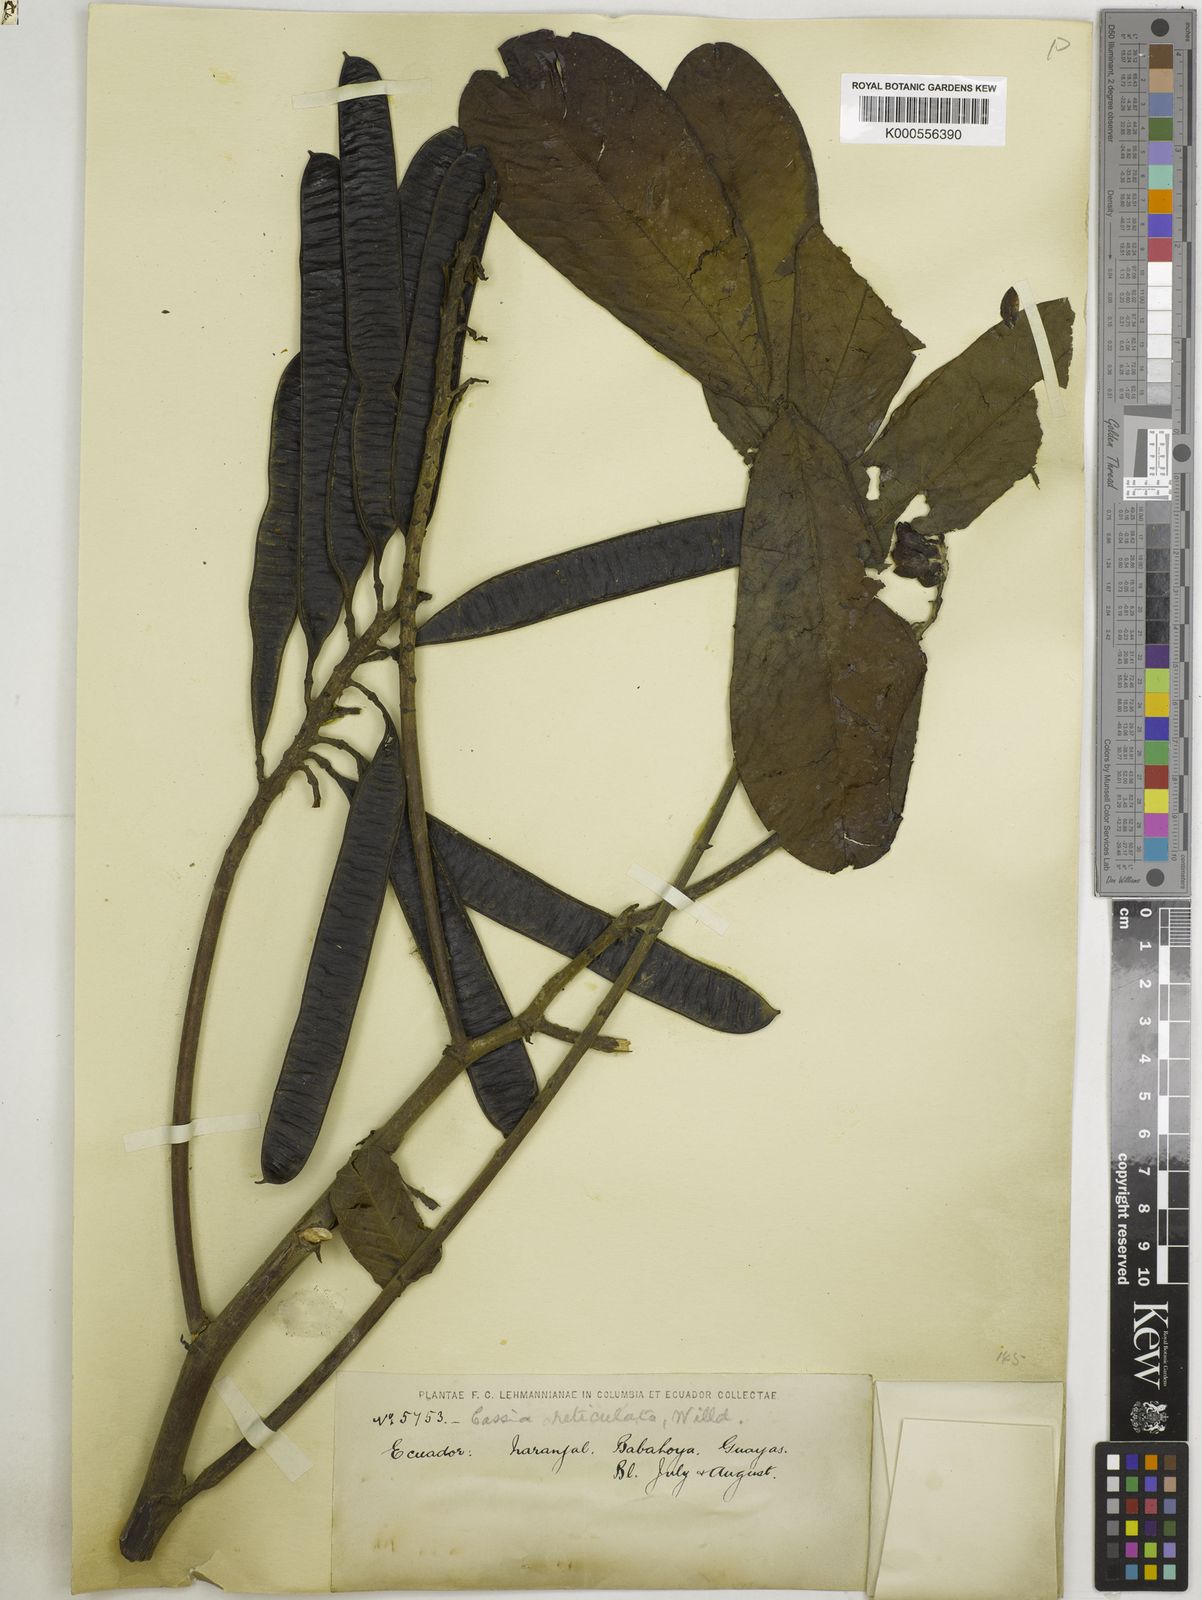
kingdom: Plantae
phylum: Tracheophyta
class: Magnoliopsida
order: Fabales
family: Fabaceae
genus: Senna
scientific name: Senna reticulata
